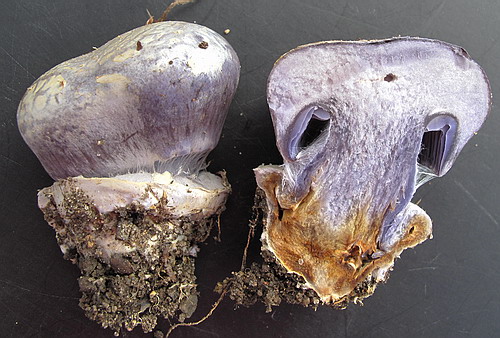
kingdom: Fungi
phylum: Basidiomycota
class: Agaricomycetes
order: Agaricales
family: Cortinariaceae
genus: Cortinarius
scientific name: Cortinarius caerulescens
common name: blåkødet slørhat
